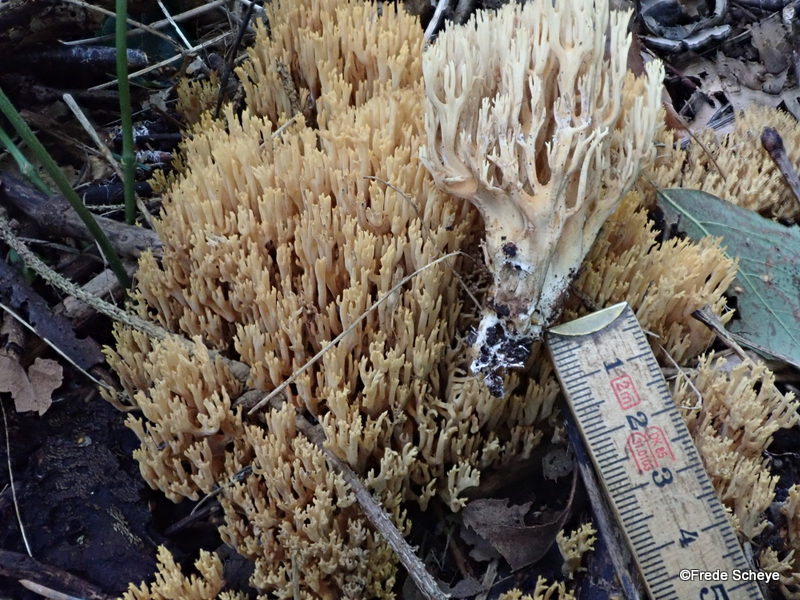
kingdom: Fungi
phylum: Basidiomycota
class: Agaricomycetes
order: Gomphales
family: Gomphaceae
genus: Phaeoclavulina
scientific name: Phaeoclavulina eumorpha
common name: gran-koralsvamp
